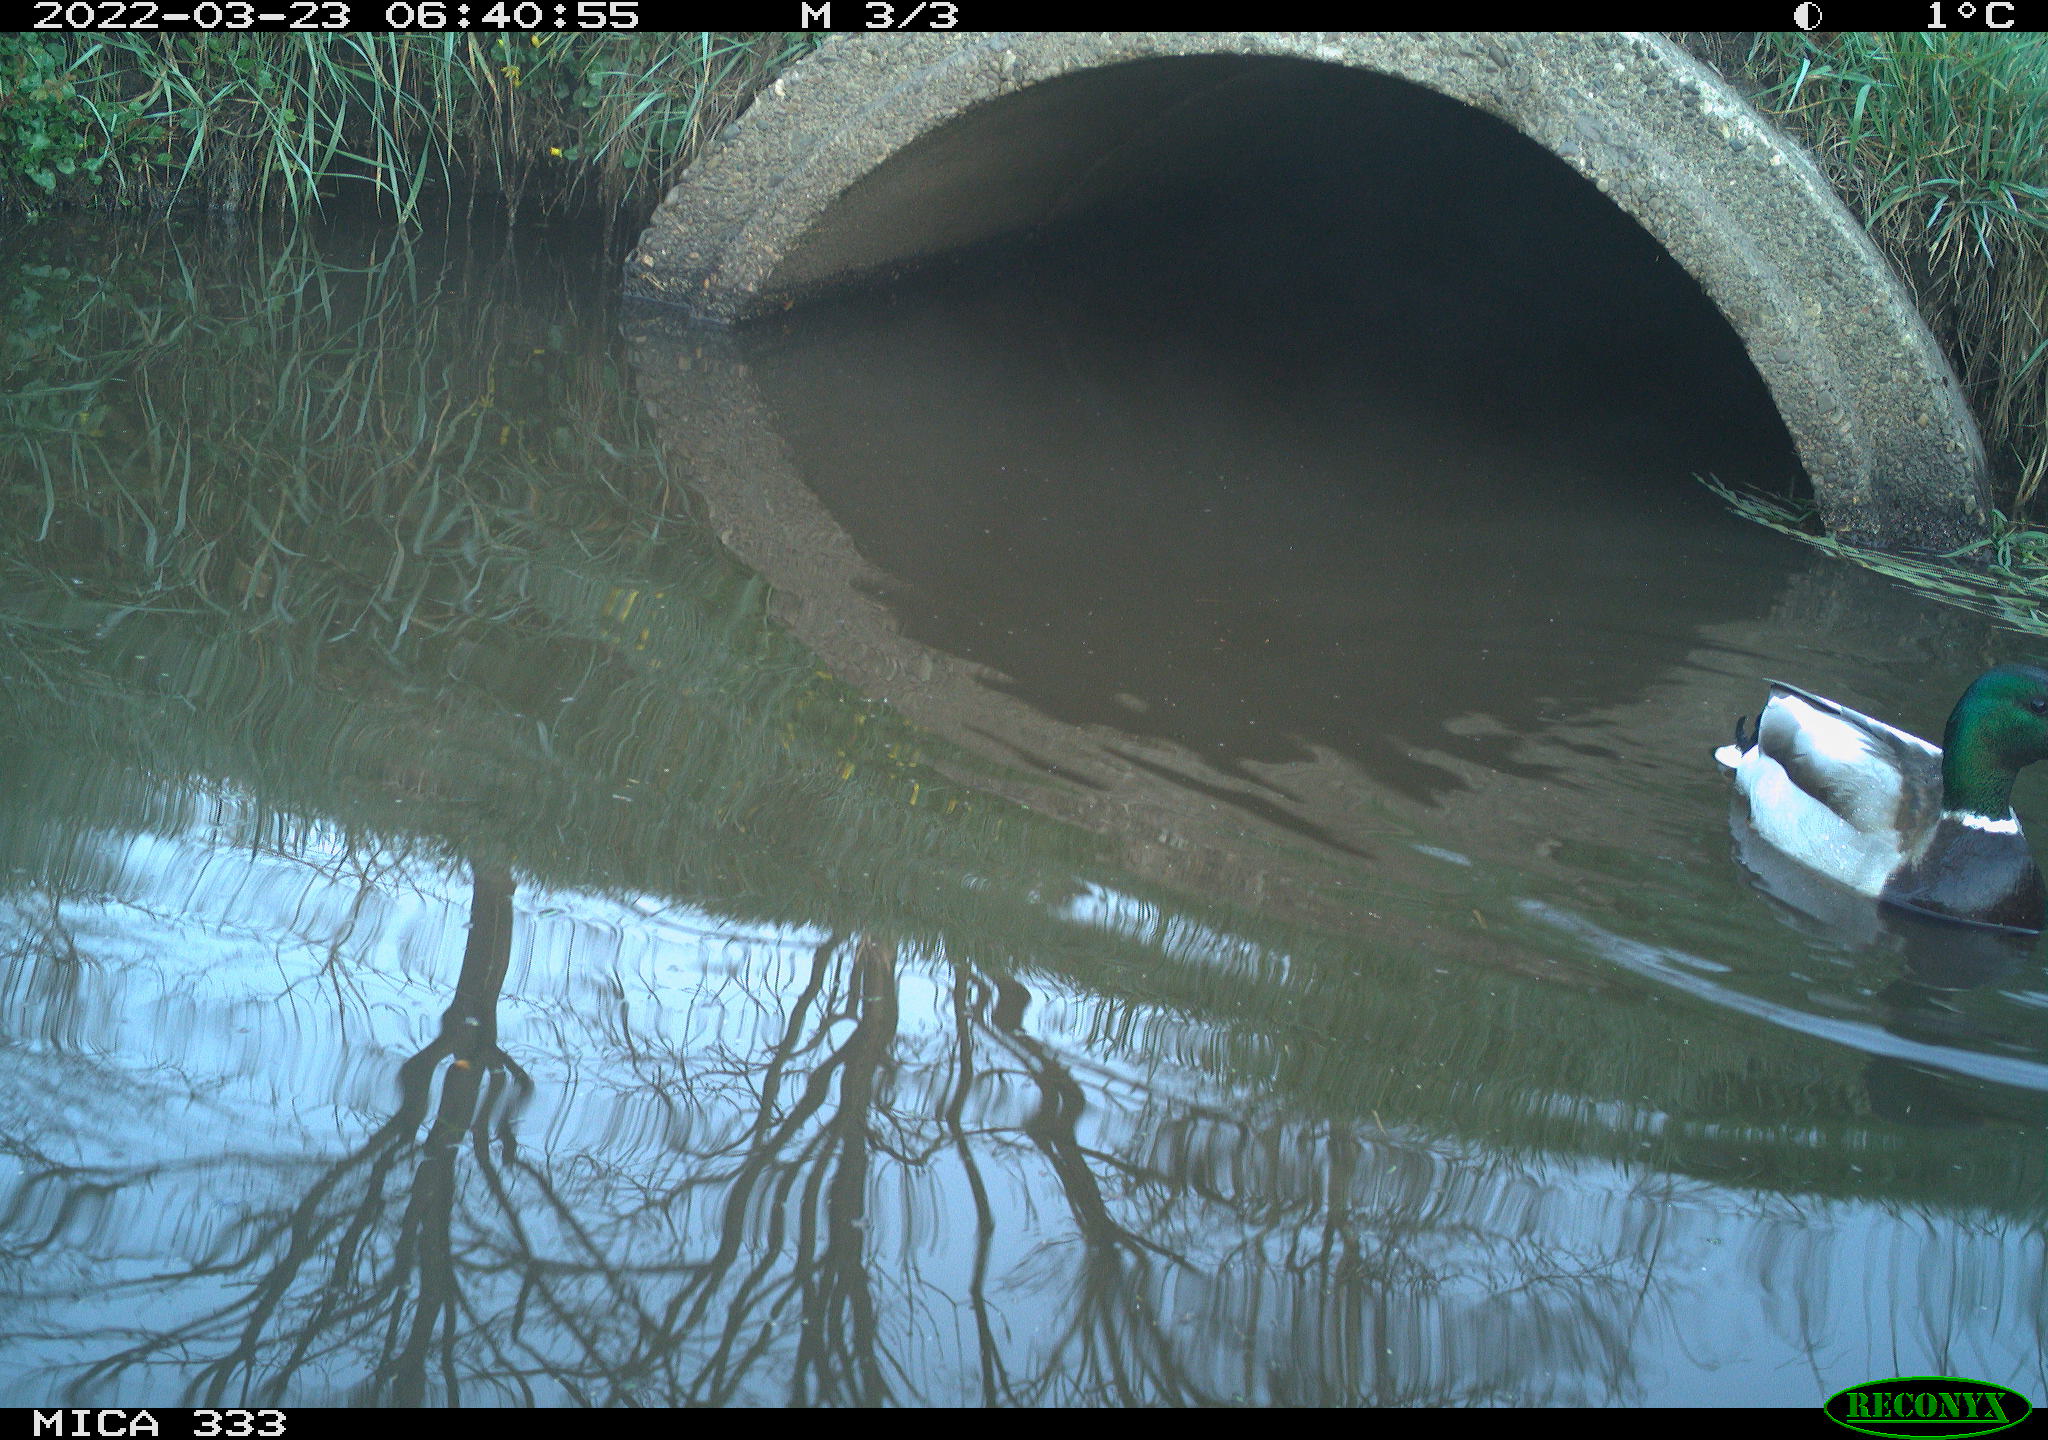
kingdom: Animalia
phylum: Chordata
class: Aves
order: Anseriformes
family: Anatidae
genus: Anas
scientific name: Anas platyrhynchos
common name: Mallard
